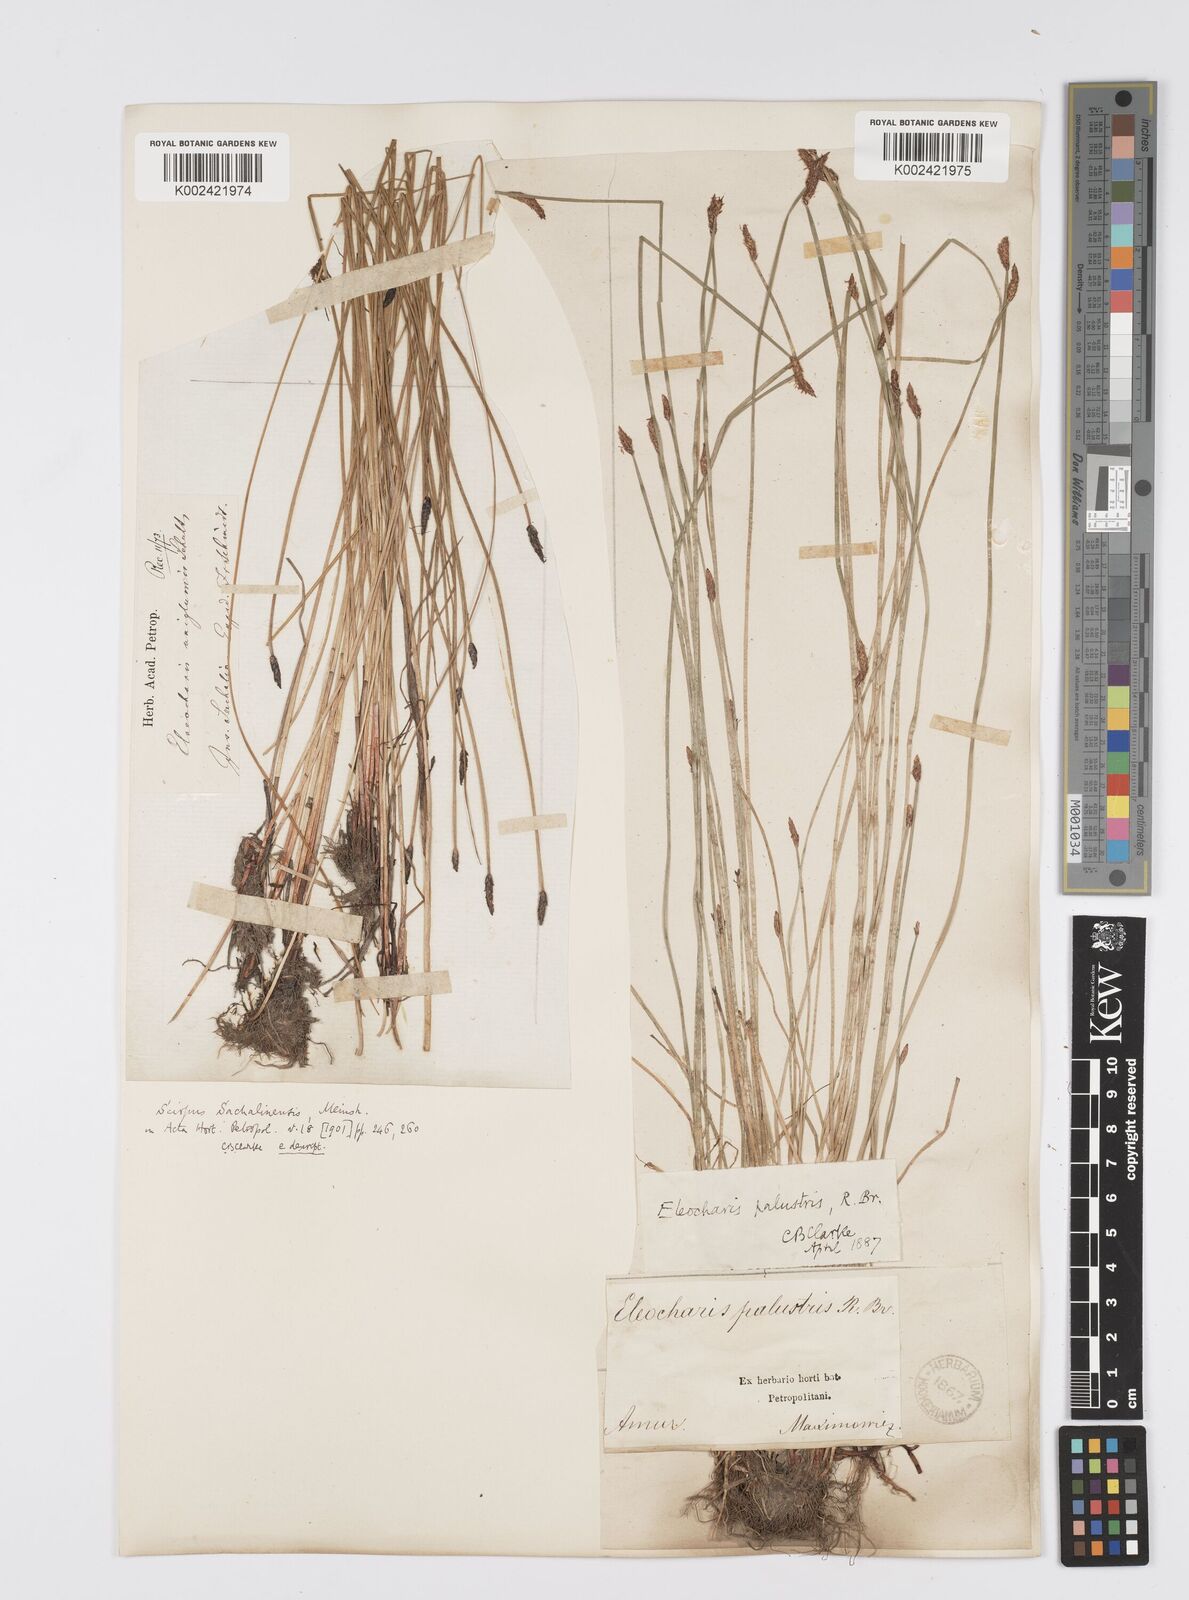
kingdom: Plantae
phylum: Tracheophyta
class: Liliopsida
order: Poales
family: Cyperaceae
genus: Eleocharis
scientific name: Eleocharis palustris
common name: Common spike-rush
